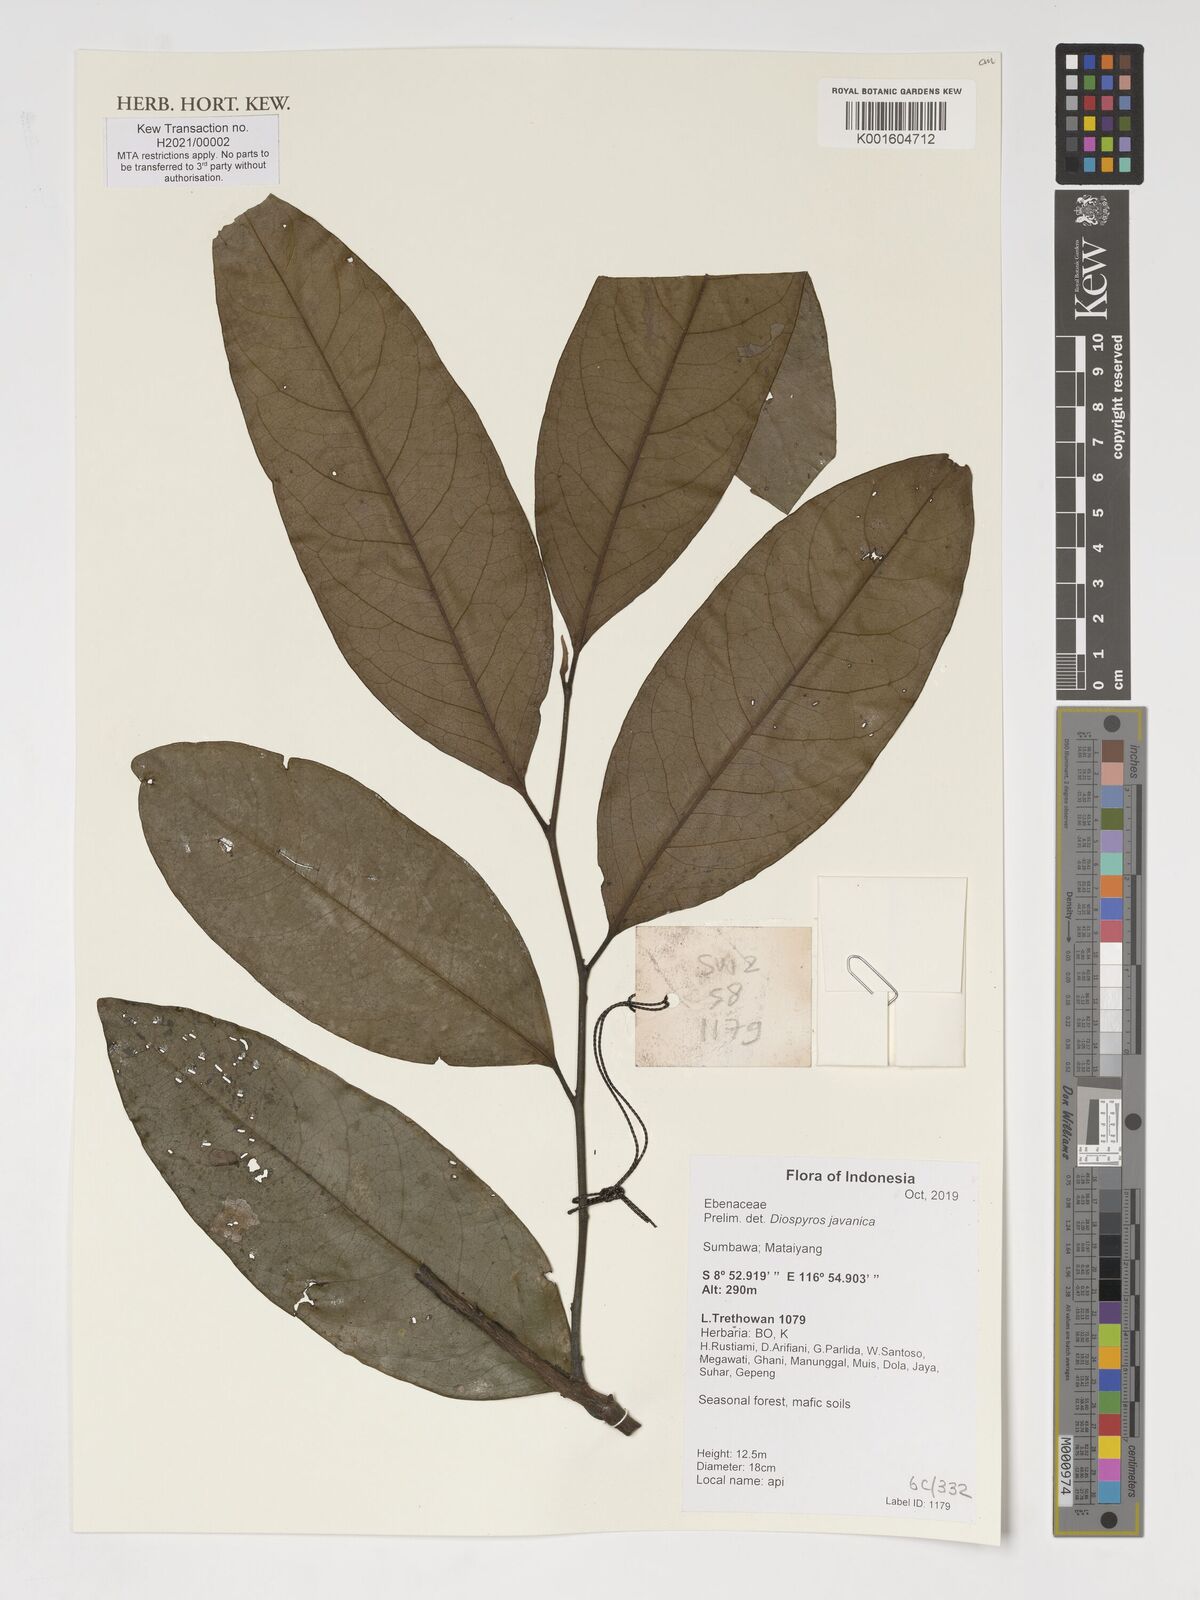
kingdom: Plantae
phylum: Tracheophyta
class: Magnoliopsida
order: Ericales
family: Ebenaceae
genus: Diospyros
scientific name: Diospyros javanica
